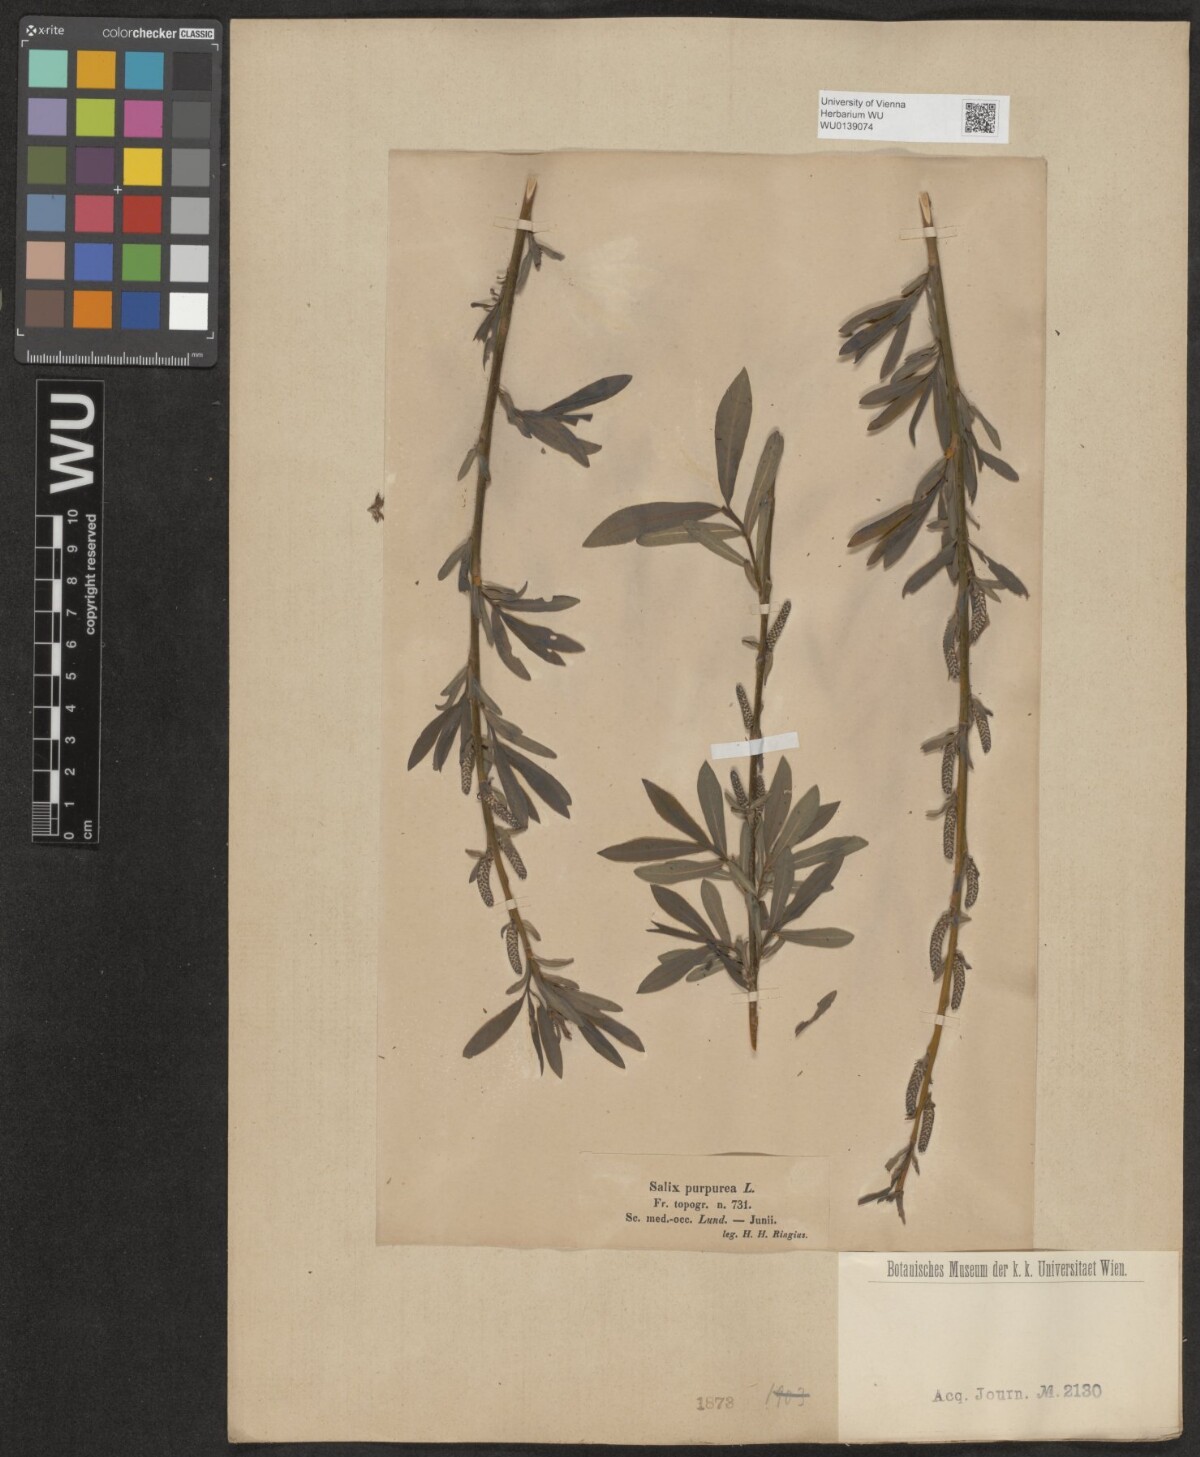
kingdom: Plantae
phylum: Tracheophyta
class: Magnoliopsida
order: Malpighiales
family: Salicaceae
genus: Salix
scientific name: Salix purpurea
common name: Purple willow
